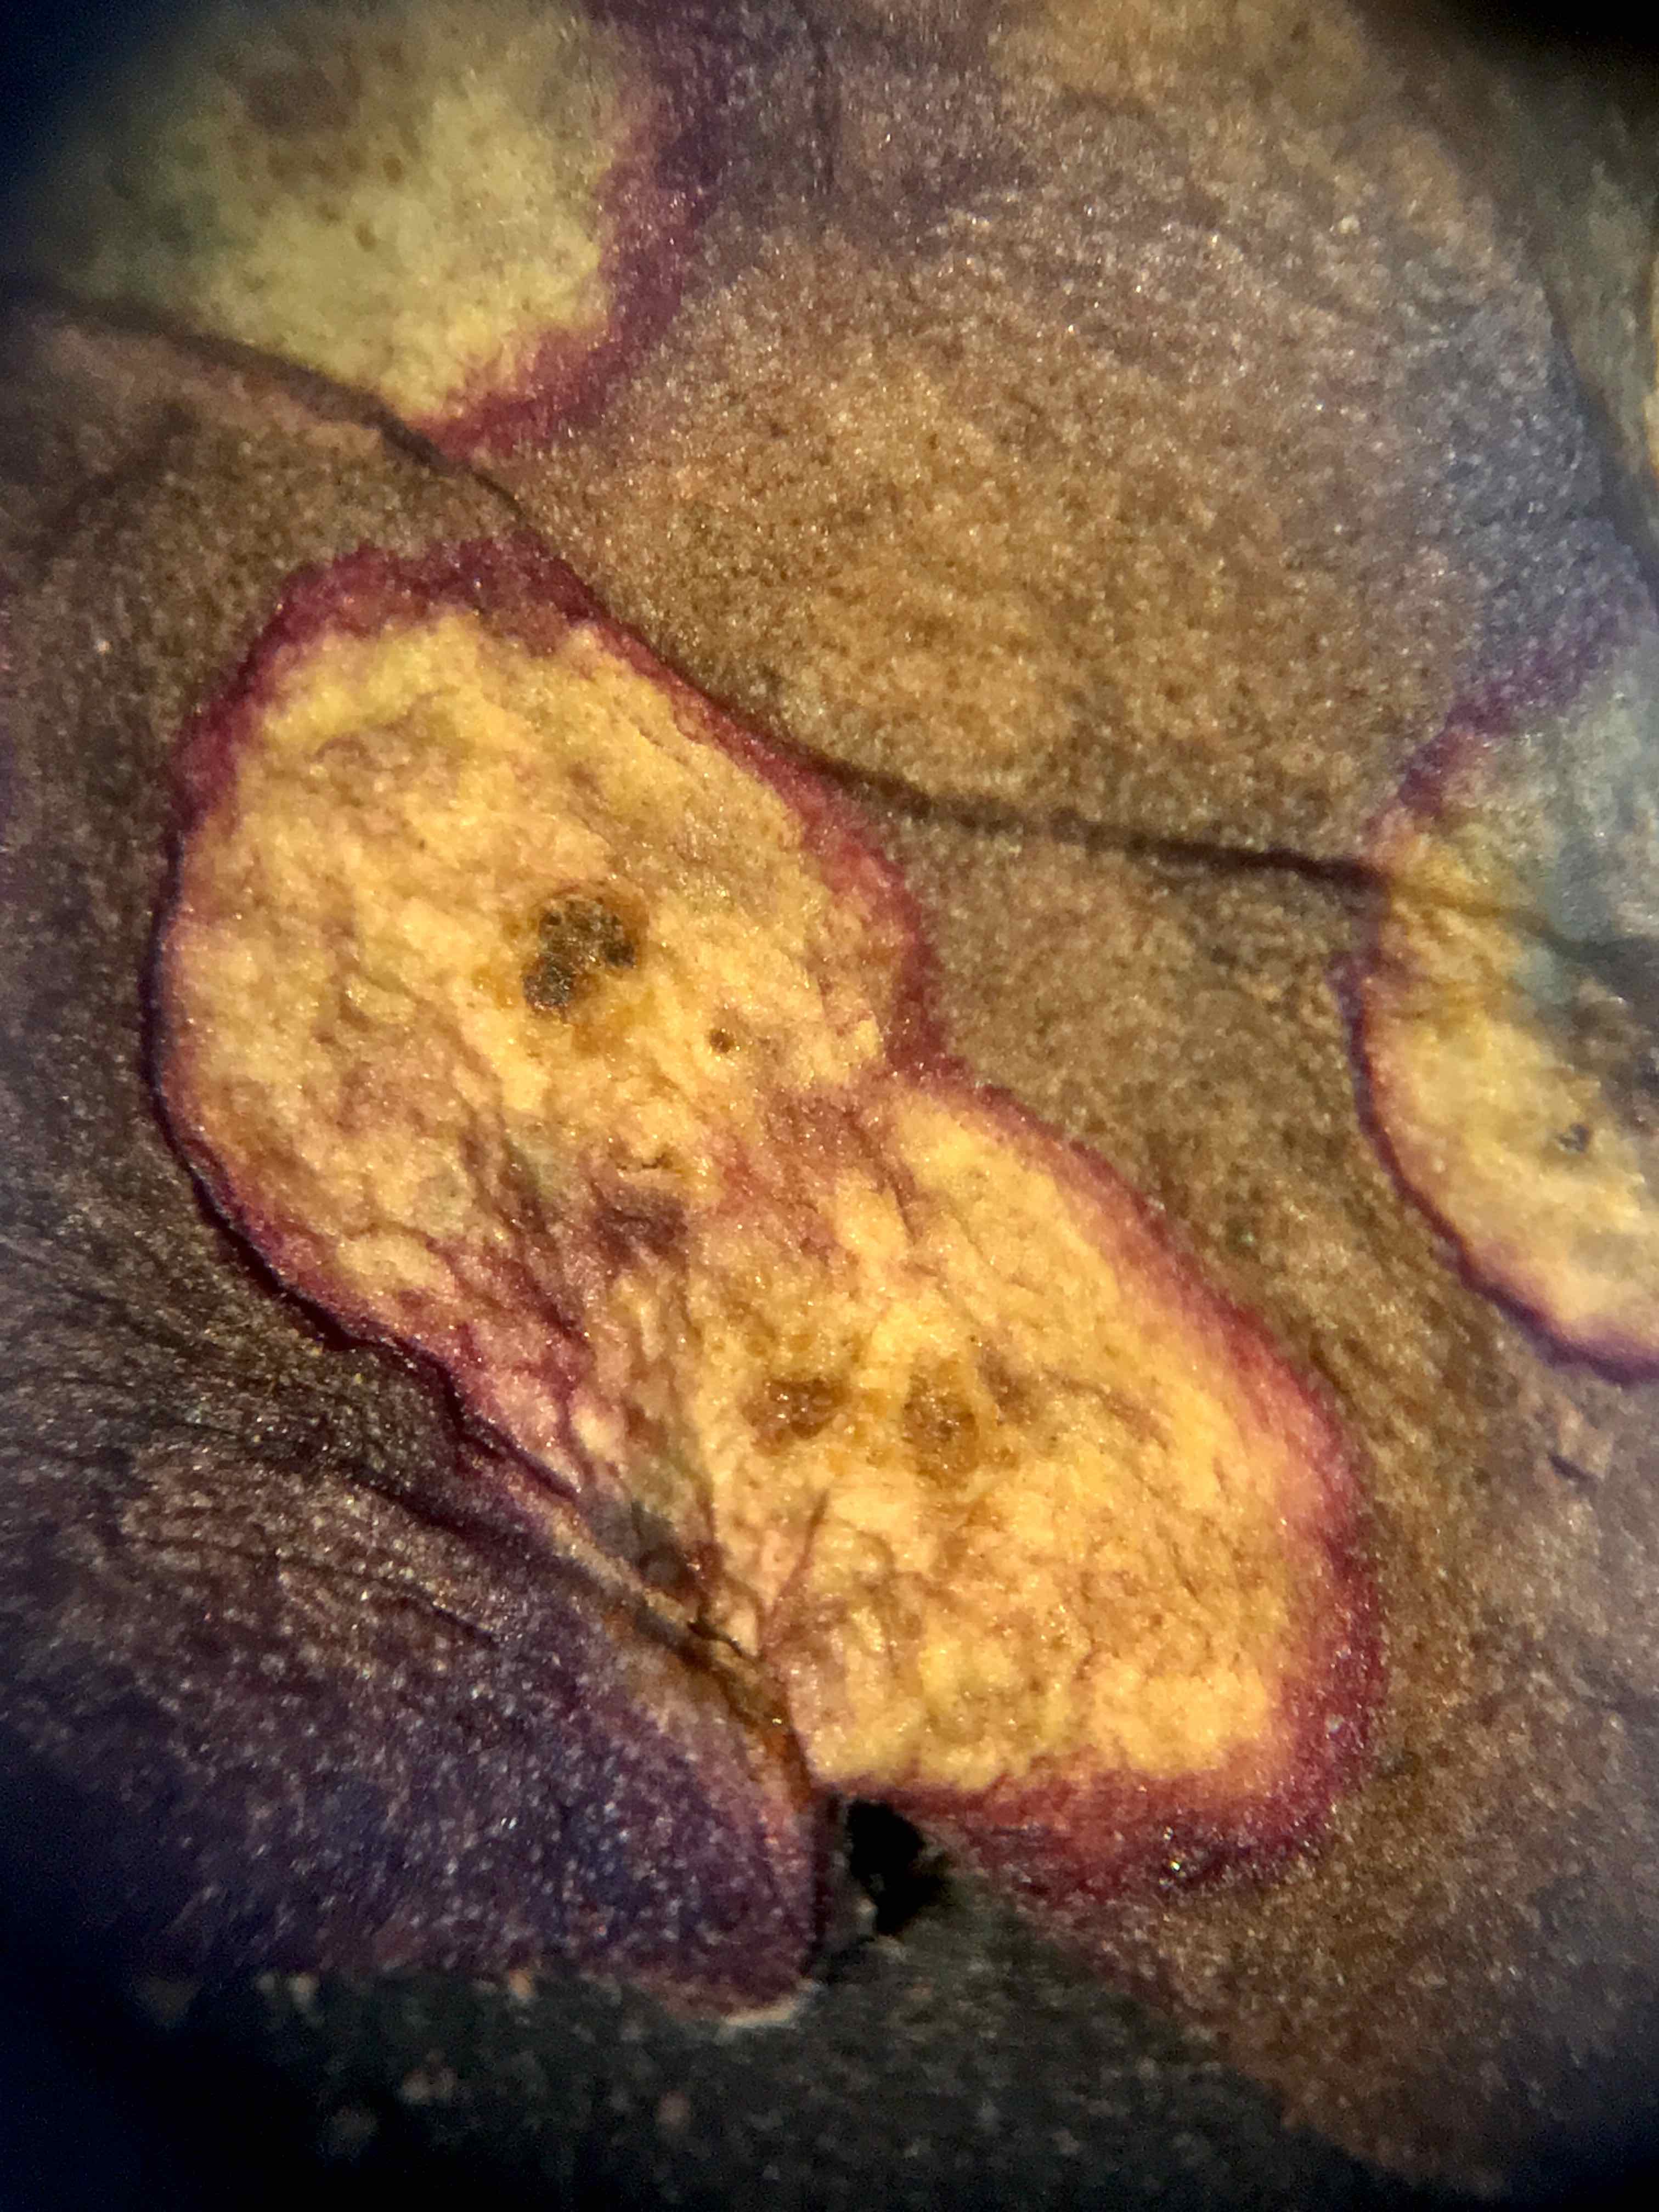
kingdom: Fungi
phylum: Basidiomycota
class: Pucciniomycetes
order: Pucciniales
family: Pucciniaceae
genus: Puccinia
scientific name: Puccinia poarum
